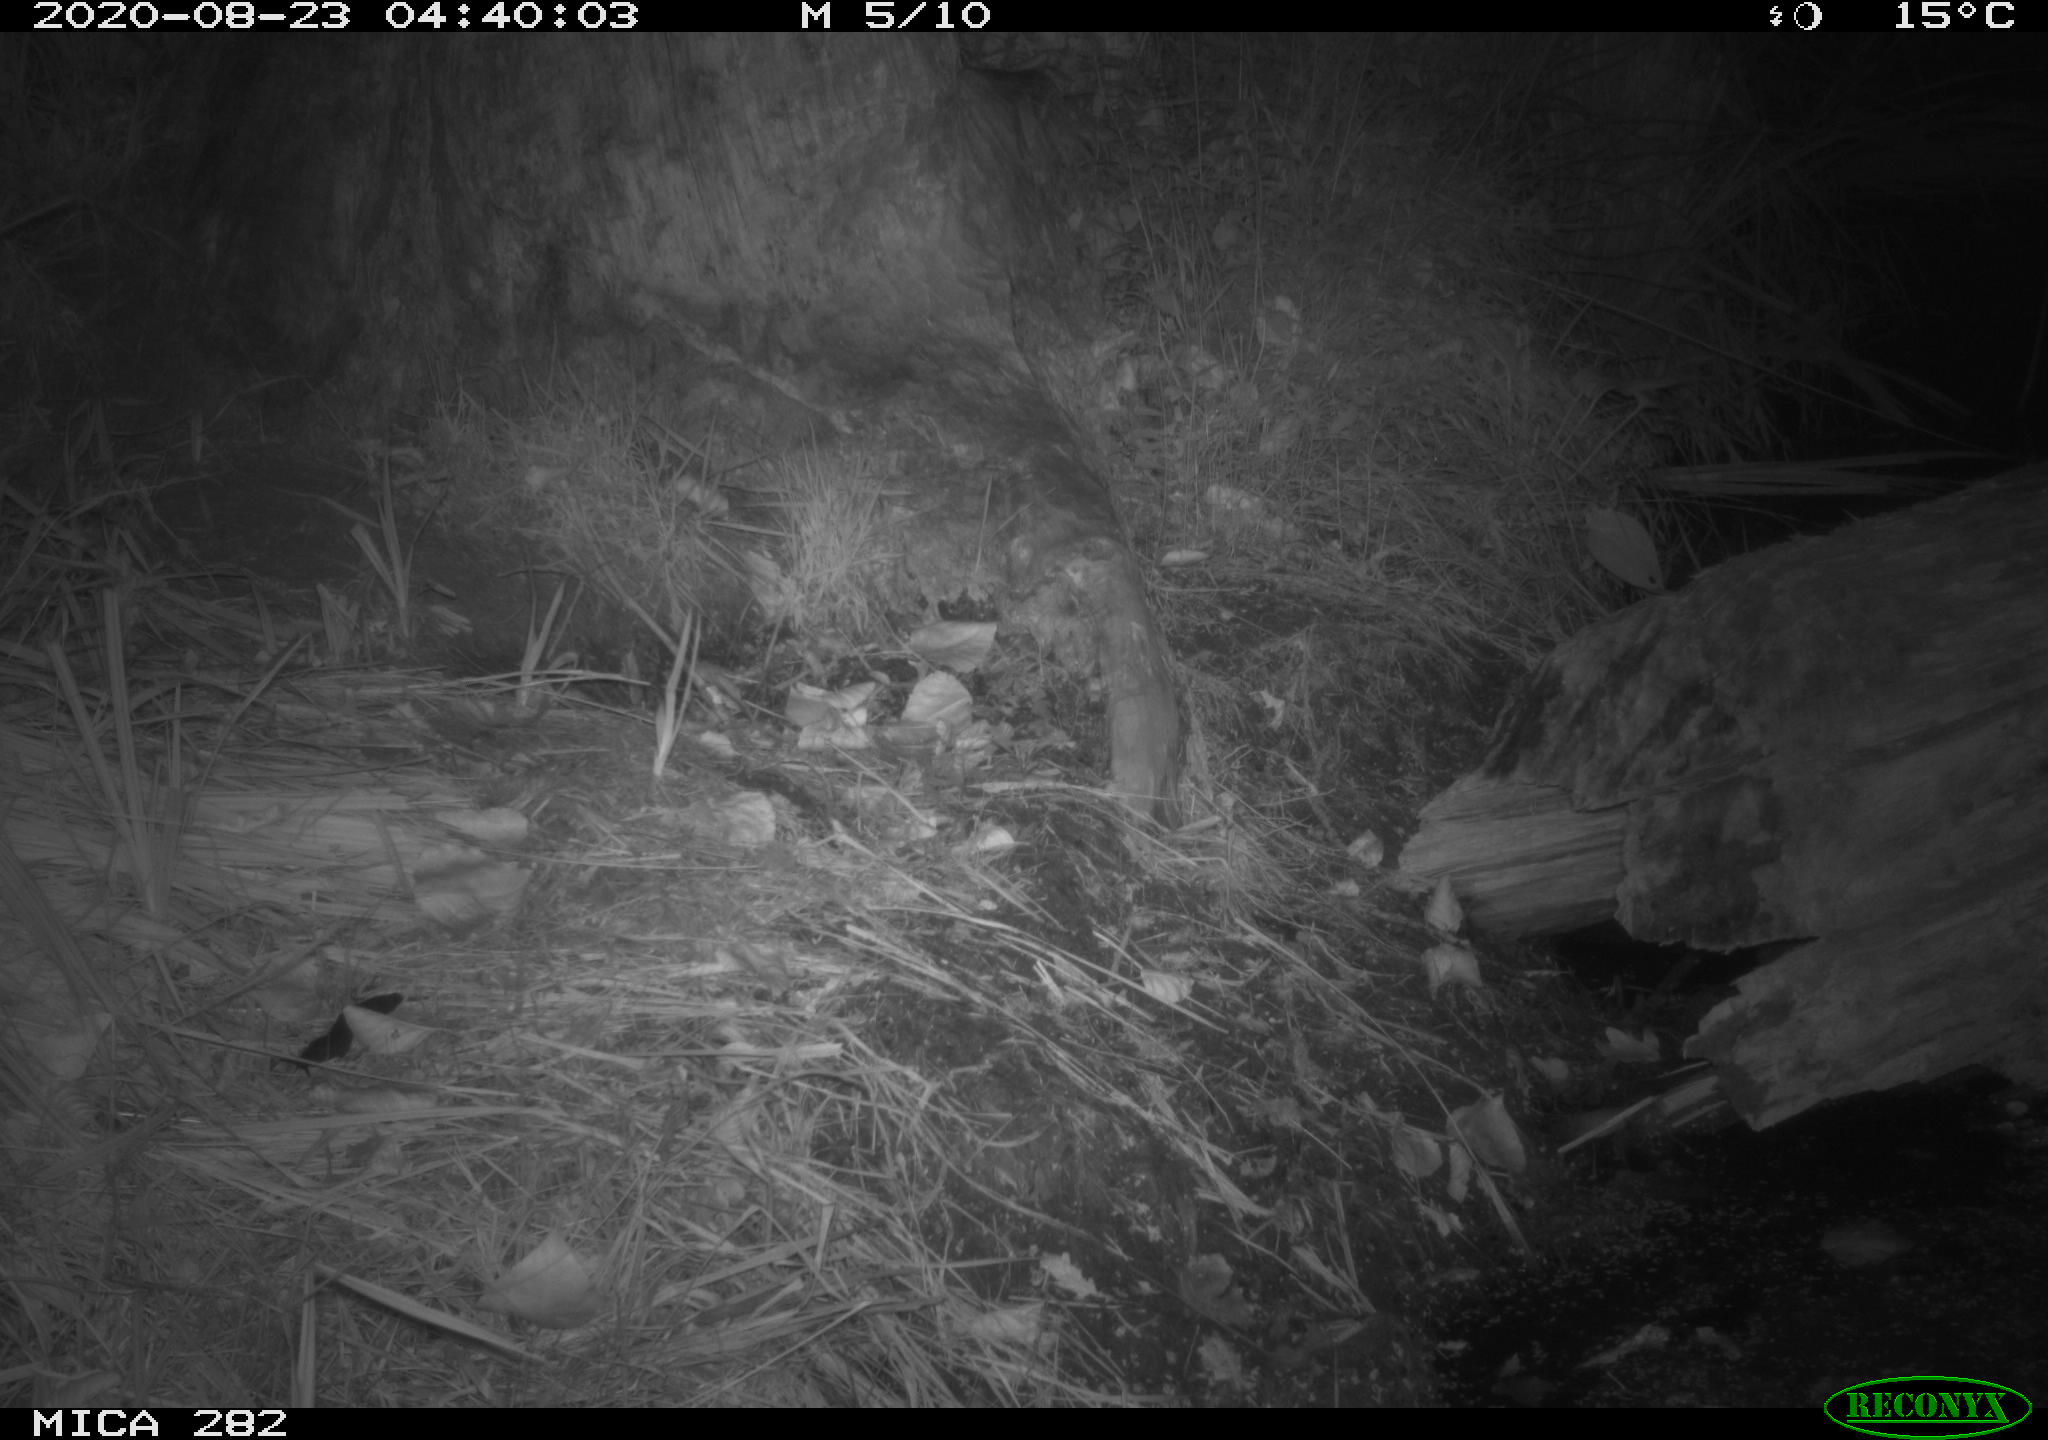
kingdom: Animalia
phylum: Chordata
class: Mammalia
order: Carnivora
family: Mustelidae
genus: Martes
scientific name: Martes foina
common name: Beech marten
